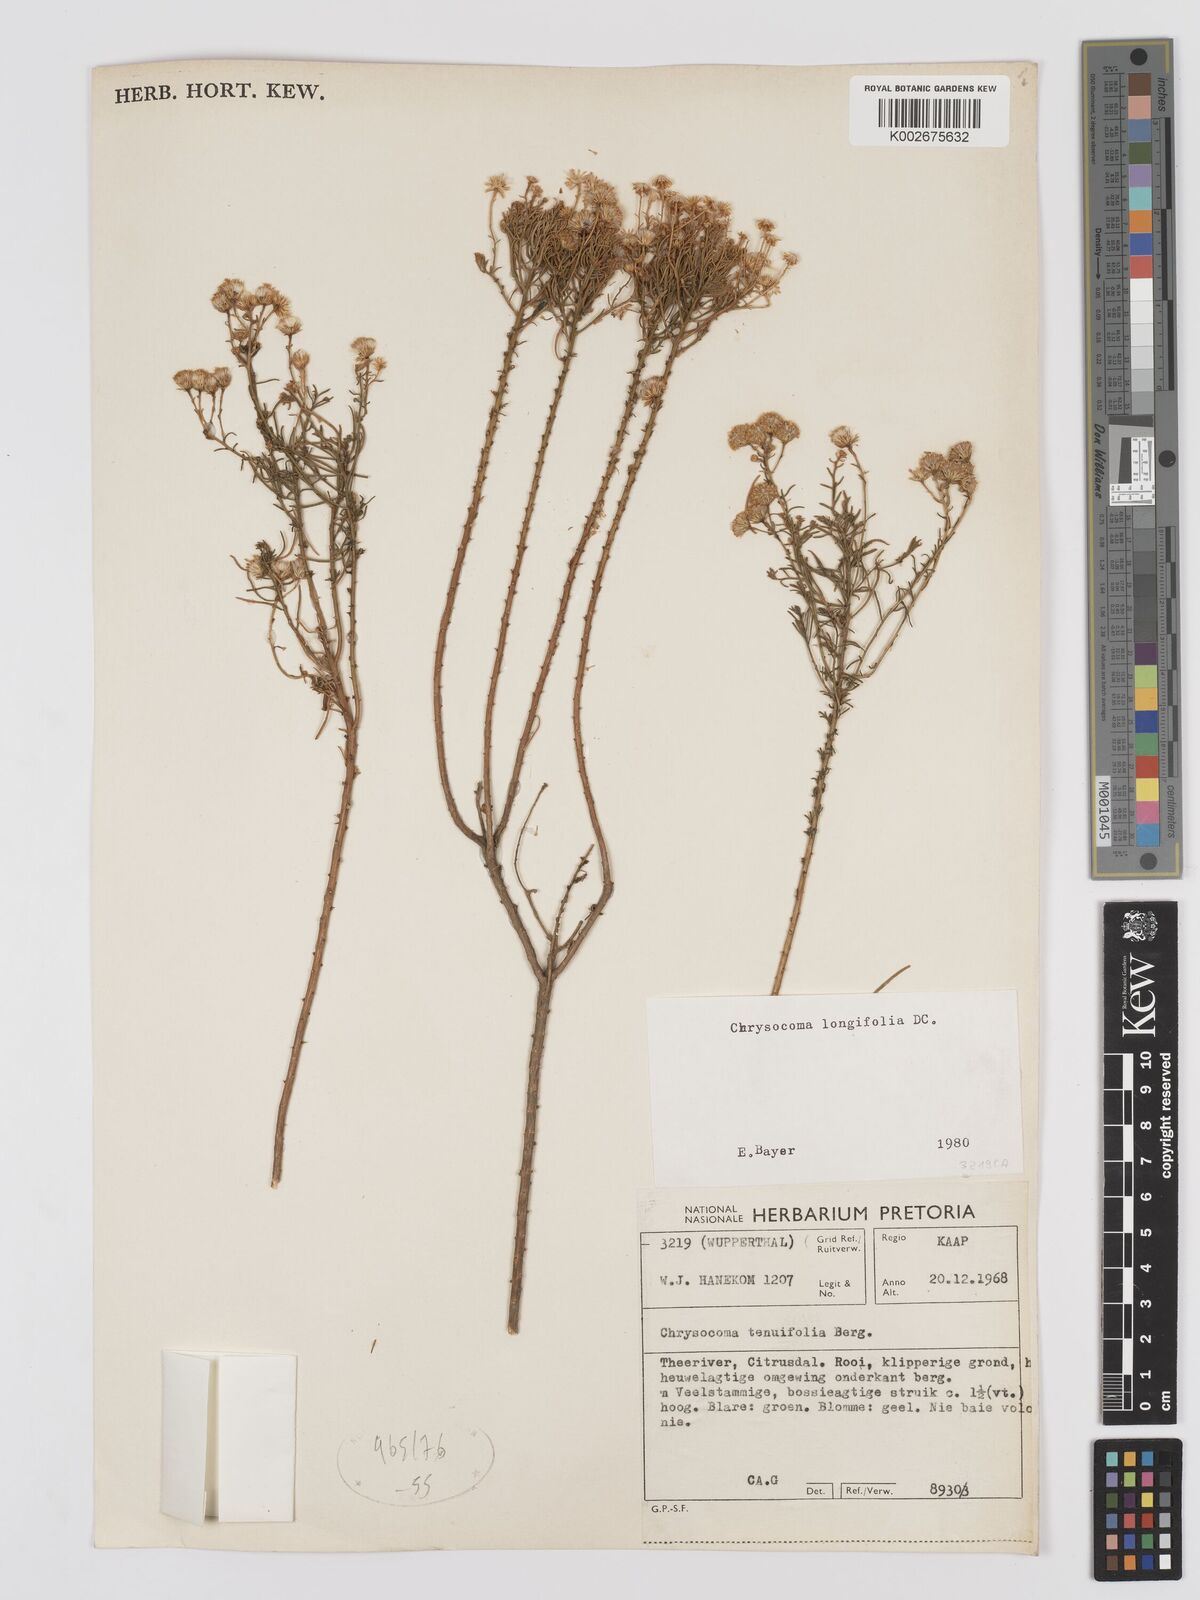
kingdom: Plantae
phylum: Tracheophyta
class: Magnoliopsida
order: Asterales
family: Asteraceae
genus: Chrysocoma
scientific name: Chrysocoma longifolia
